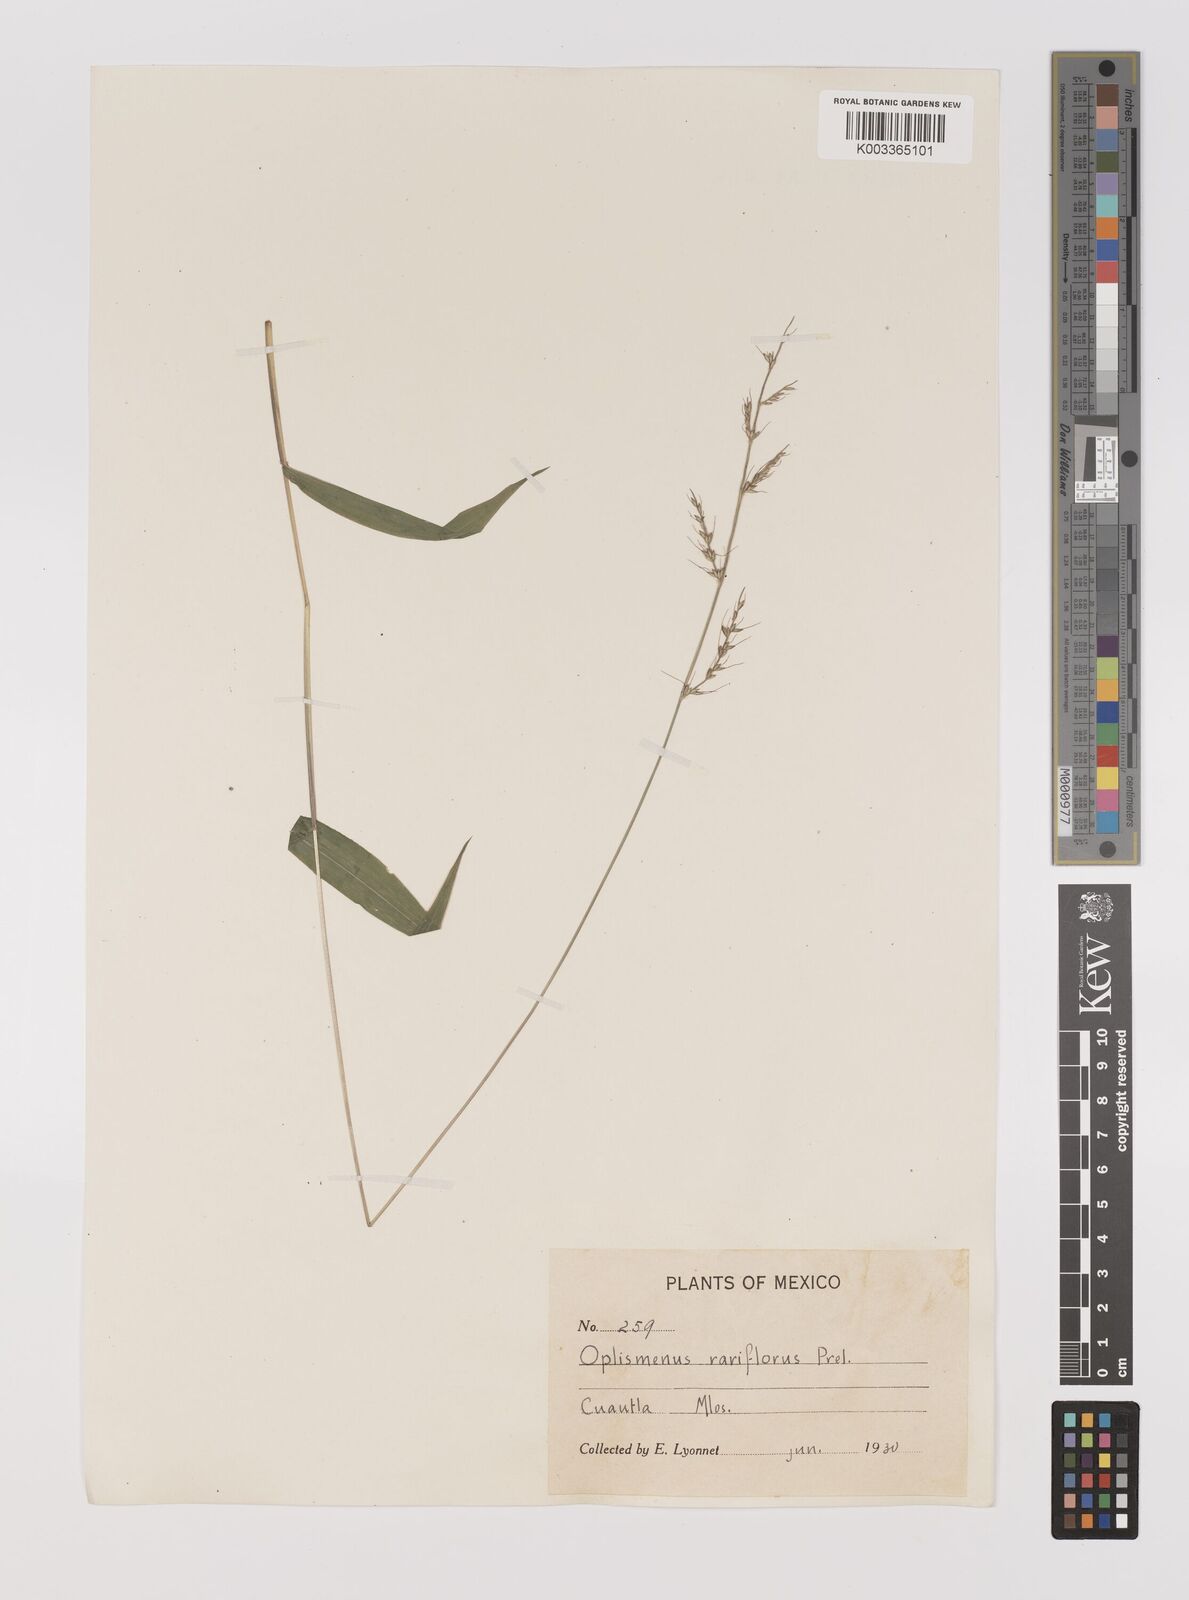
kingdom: Plantae
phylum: Tracheophyta
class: Liliopsida
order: Poales
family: Poaceae
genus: Oplismenus
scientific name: Oplismenus compositus
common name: Running mountain grass
